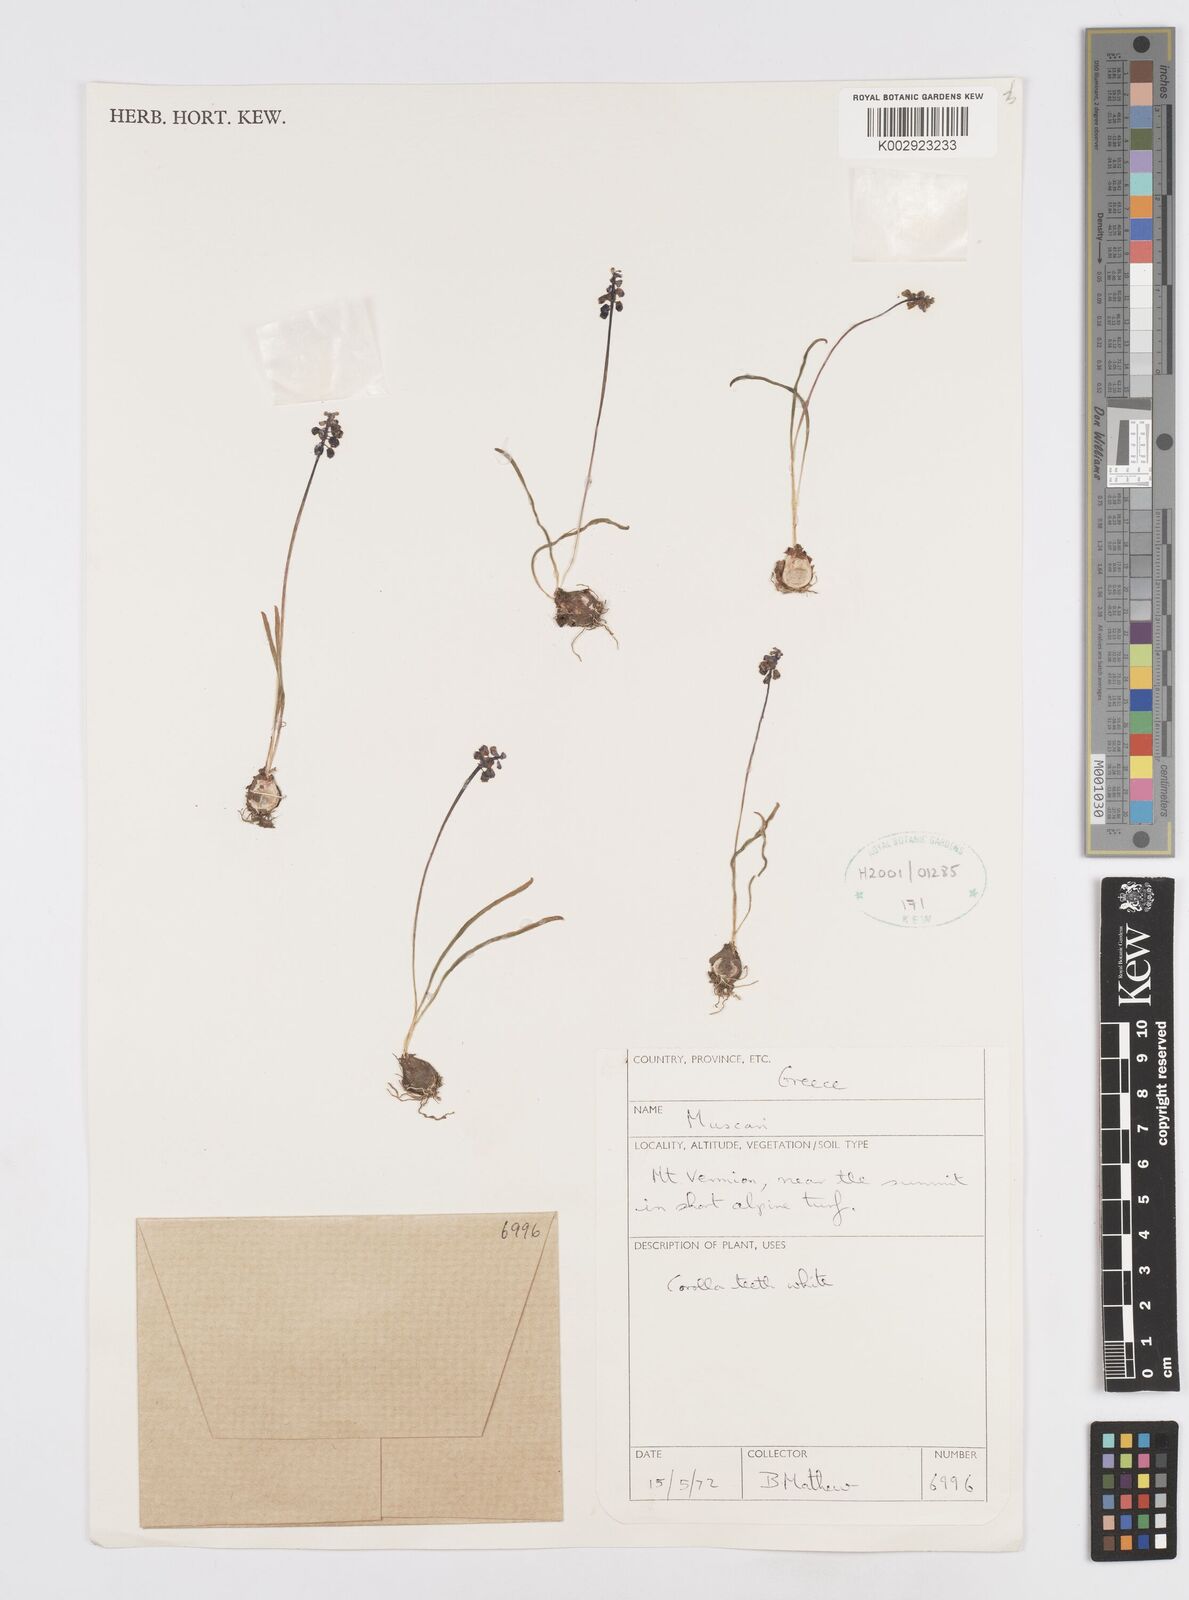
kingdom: Plantae
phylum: Tracheophyta
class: Liliopsida
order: Asparagales
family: Asparagaceae
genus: Muscari
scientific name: Muscari
